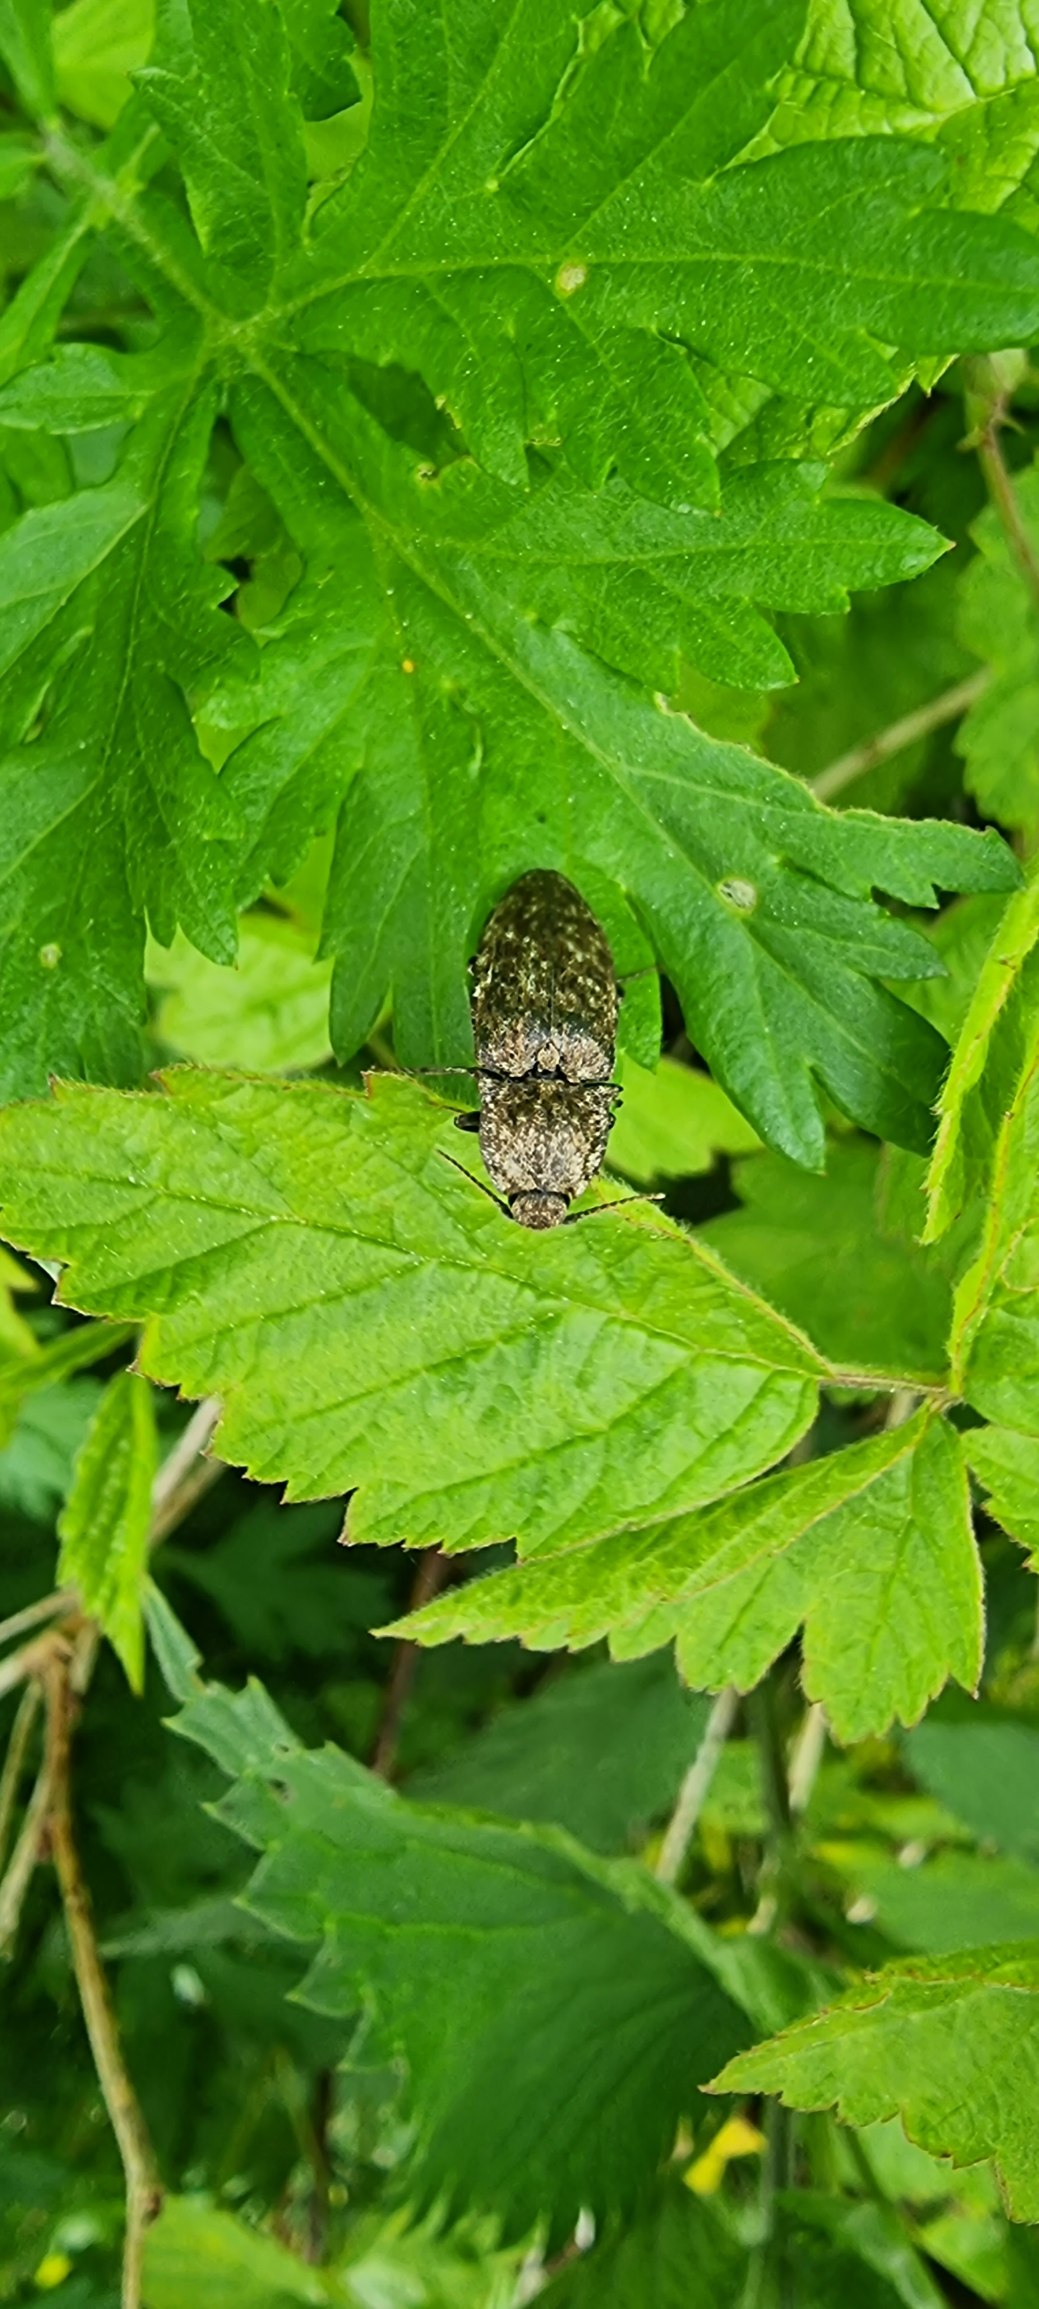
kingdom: Animalia
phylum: Arthropoda
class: Insecta
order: Coleoptera
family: Elateridae
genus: Agrypnus
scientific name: Agrypnus murinus
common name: Musegrå smælder
